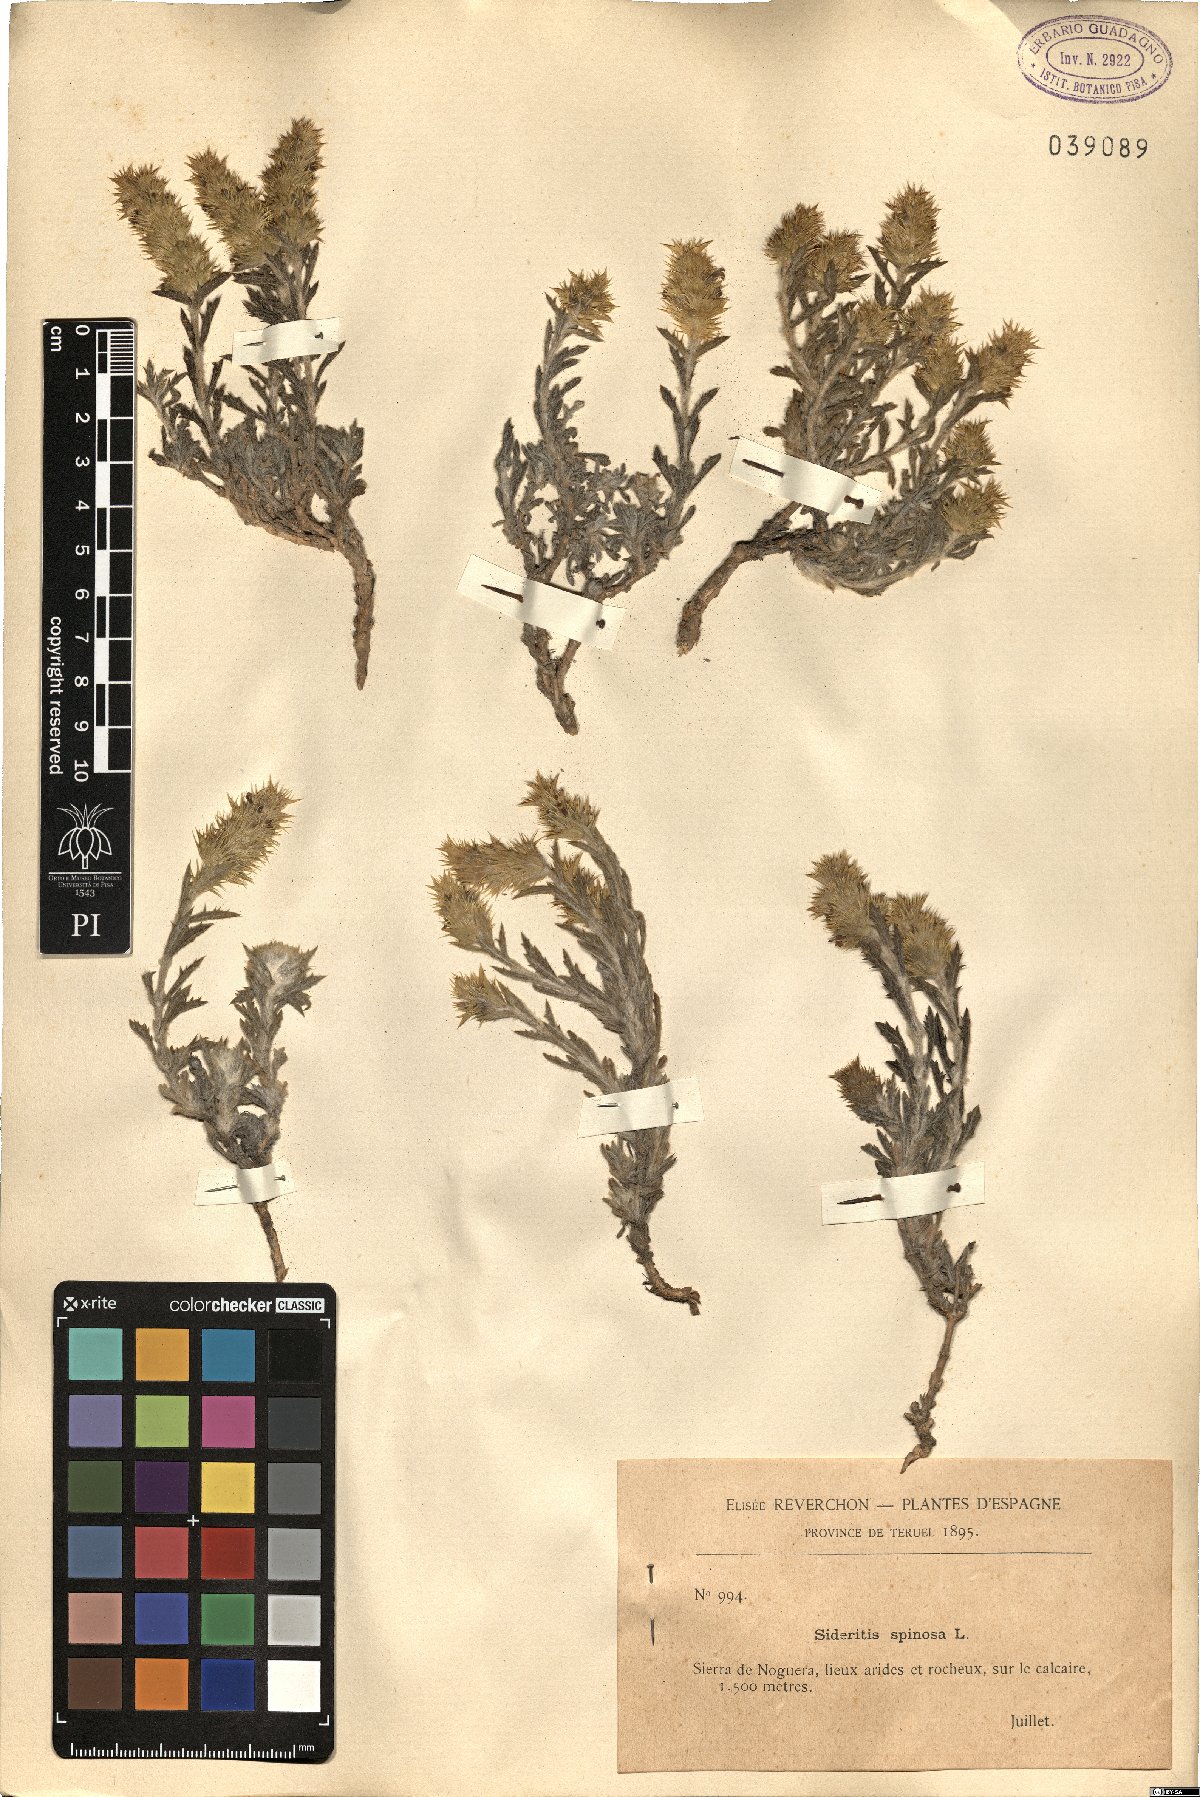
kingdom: Plantae
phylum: Tracheophyta
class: Magnoliopsida
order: Lamiales
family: Lamiaceae
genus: Sideritis
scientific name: Sideritis spinulosa
